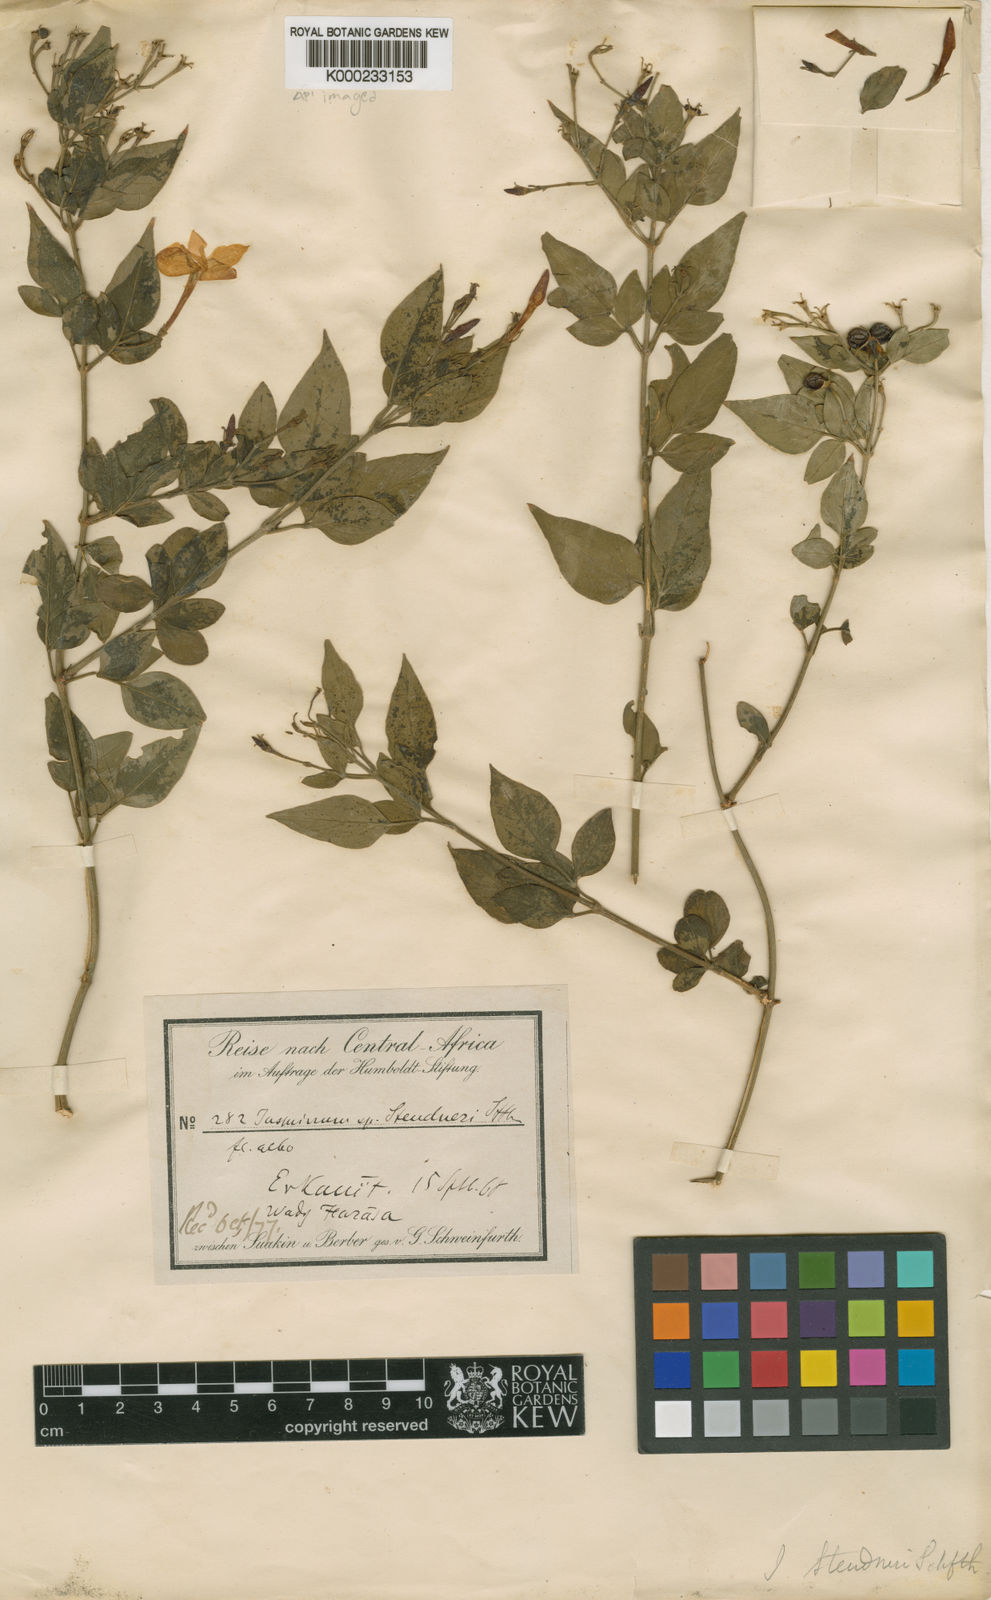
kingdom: Plantae
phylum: Tracheophyta
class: Magnoliopsida
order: Lamiales
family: Oleaceae
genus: Jasminum
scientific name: Jasminum grandiflorum
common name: Catalonian jasmine
